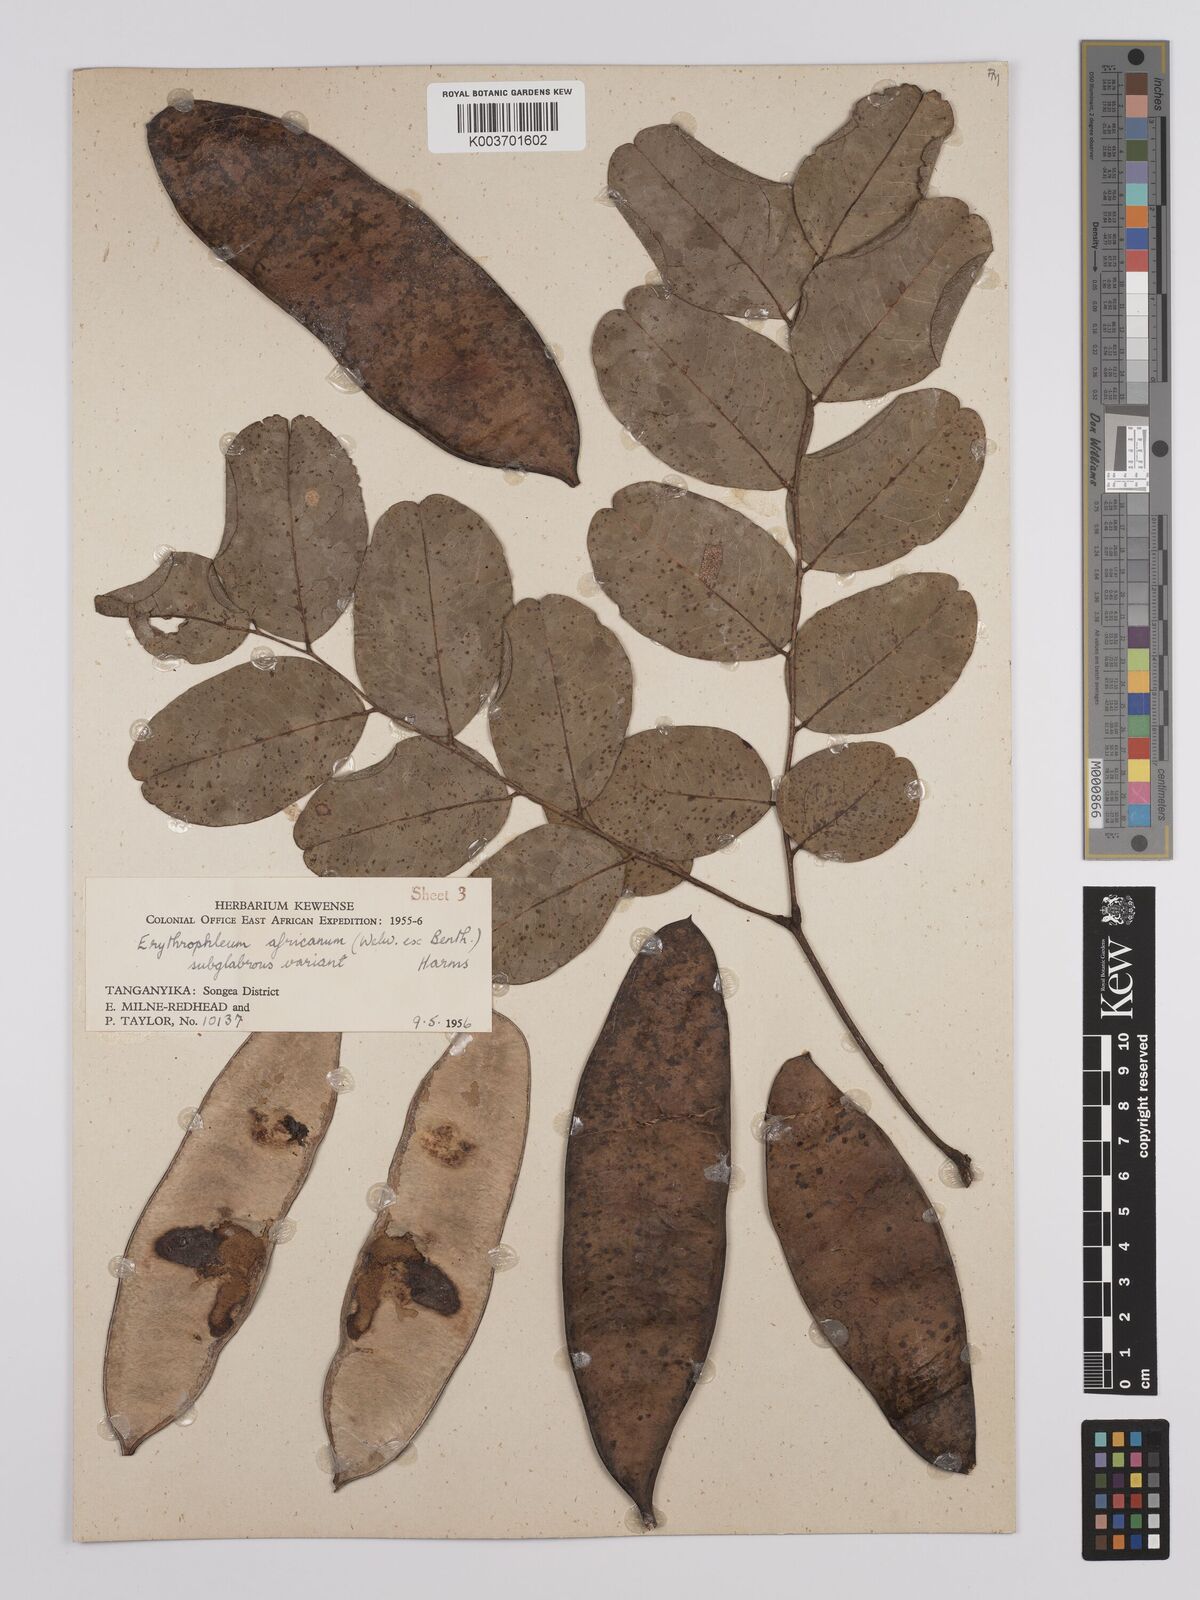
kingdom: Plantae
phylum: Tracheophyta
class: Magnoliopsida
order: Fabales
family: Fabaceae
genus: Erythrophleum
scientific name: Erythrophleum africanum
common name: African blackwood
